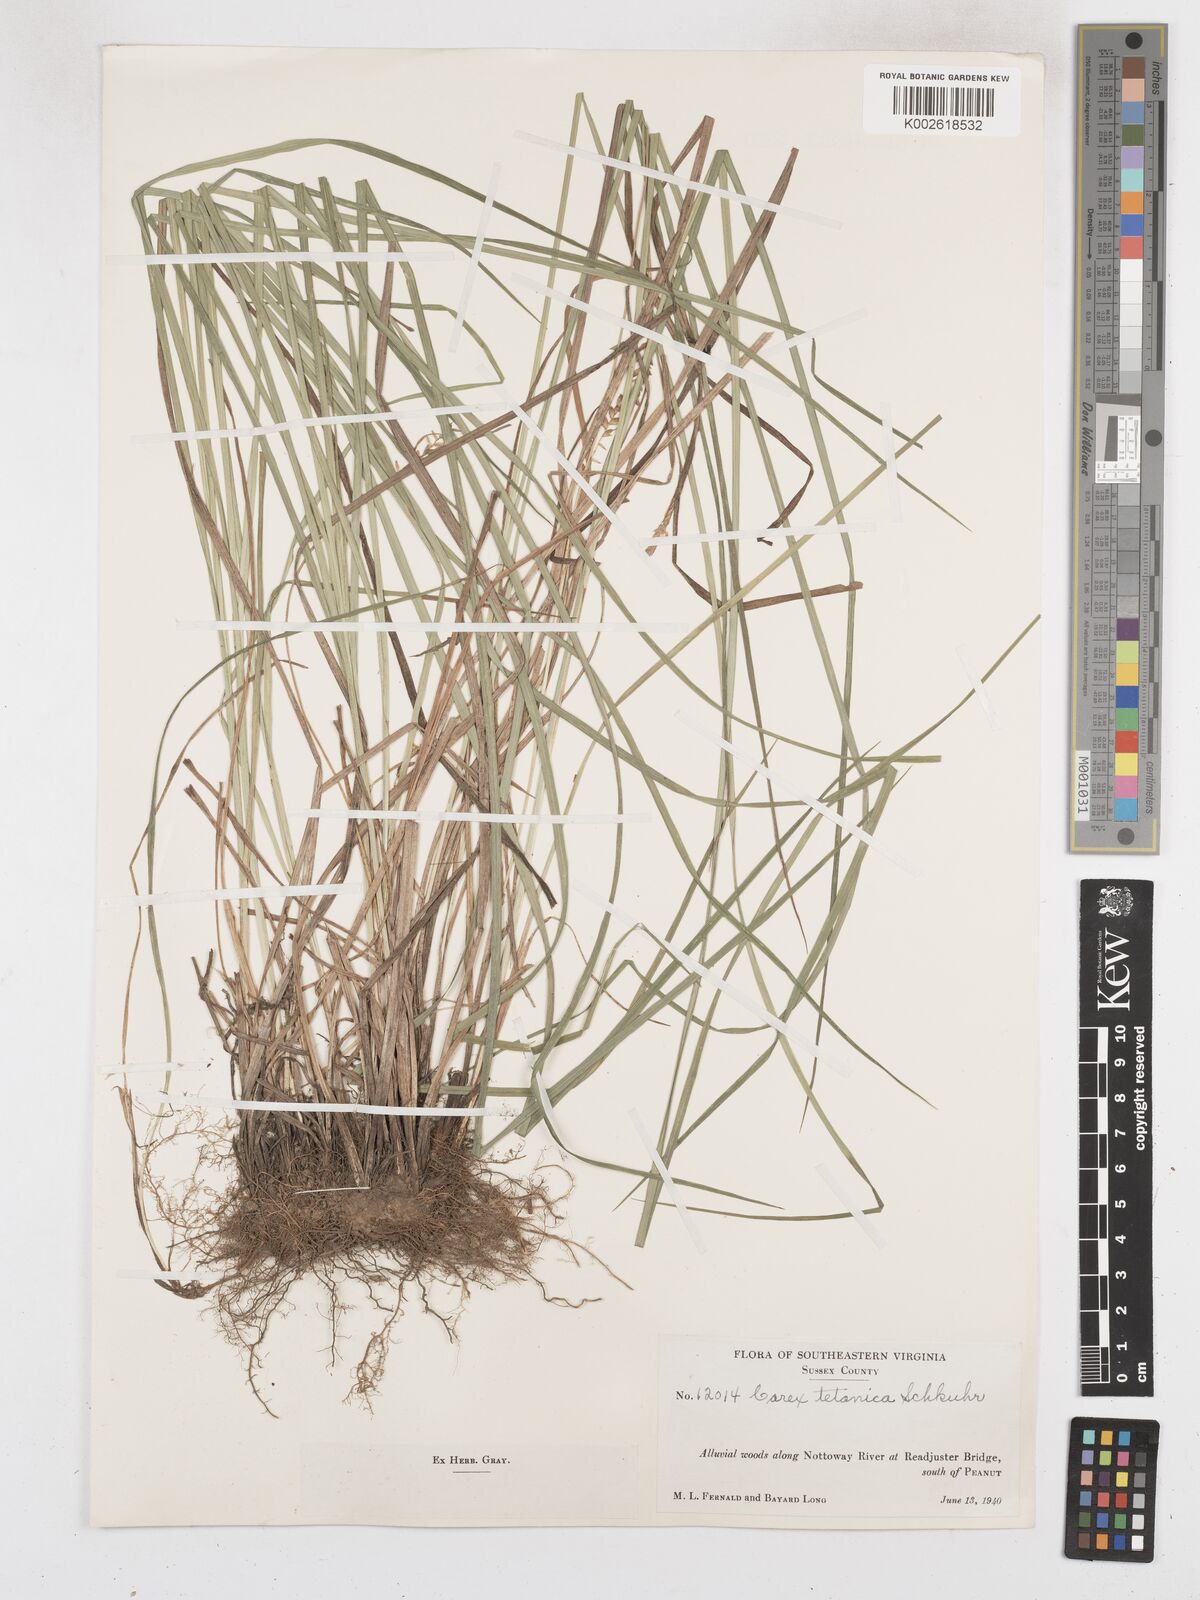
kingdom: Plantae
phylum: Tracheophyta
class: Liliopsida
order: Poales
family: Cyperaceae
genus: Carex
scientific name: Carex tetanica
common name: Rigid sedge
